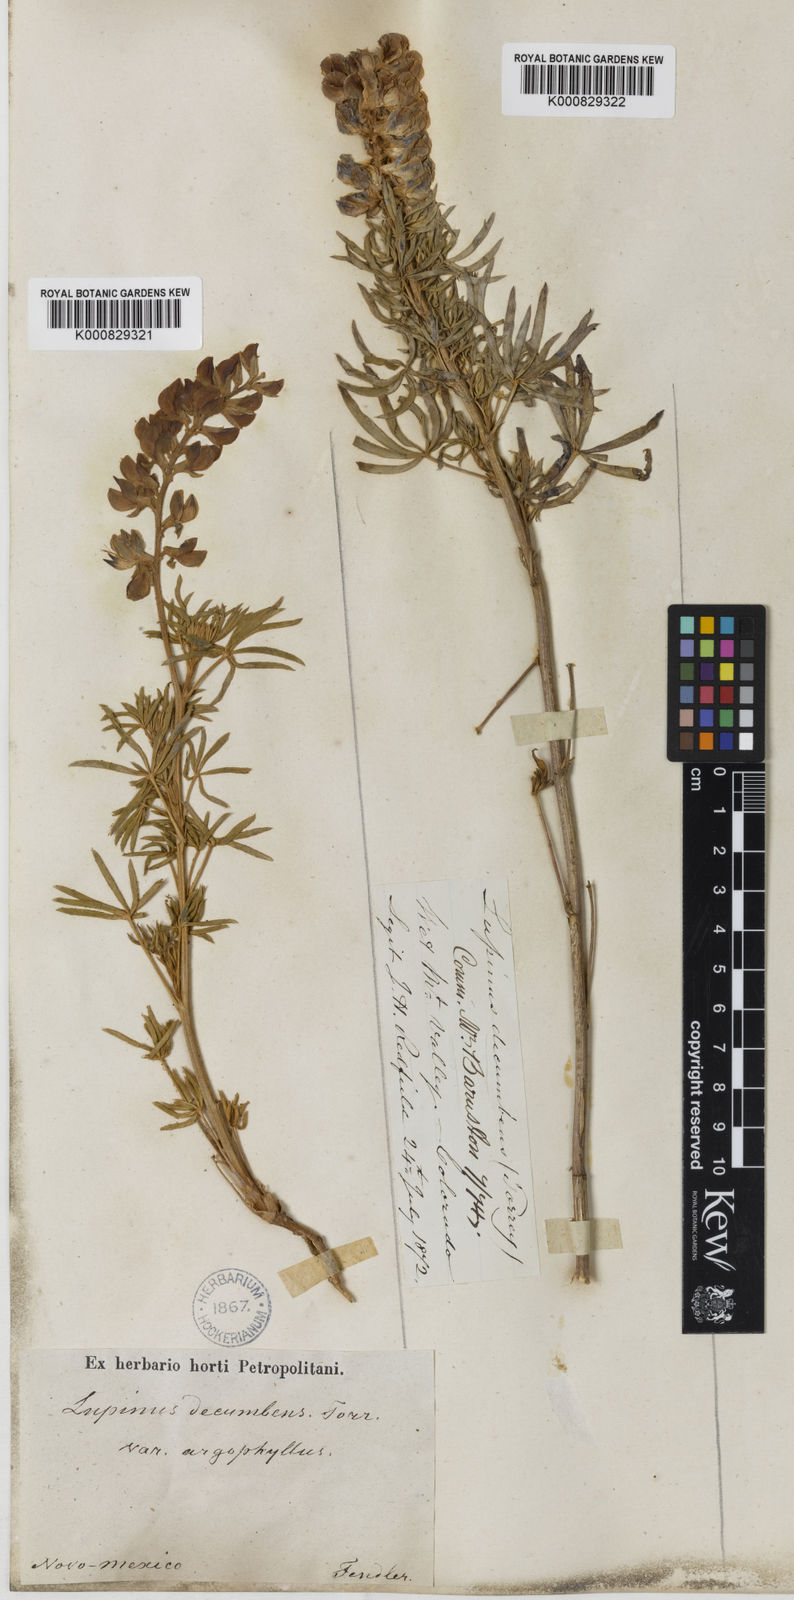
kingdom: Plantae
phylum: Tracheophyta
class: Magnoliopsida
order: Fabales
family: Fabaceae
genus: Lupinus
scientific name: Lupinus
